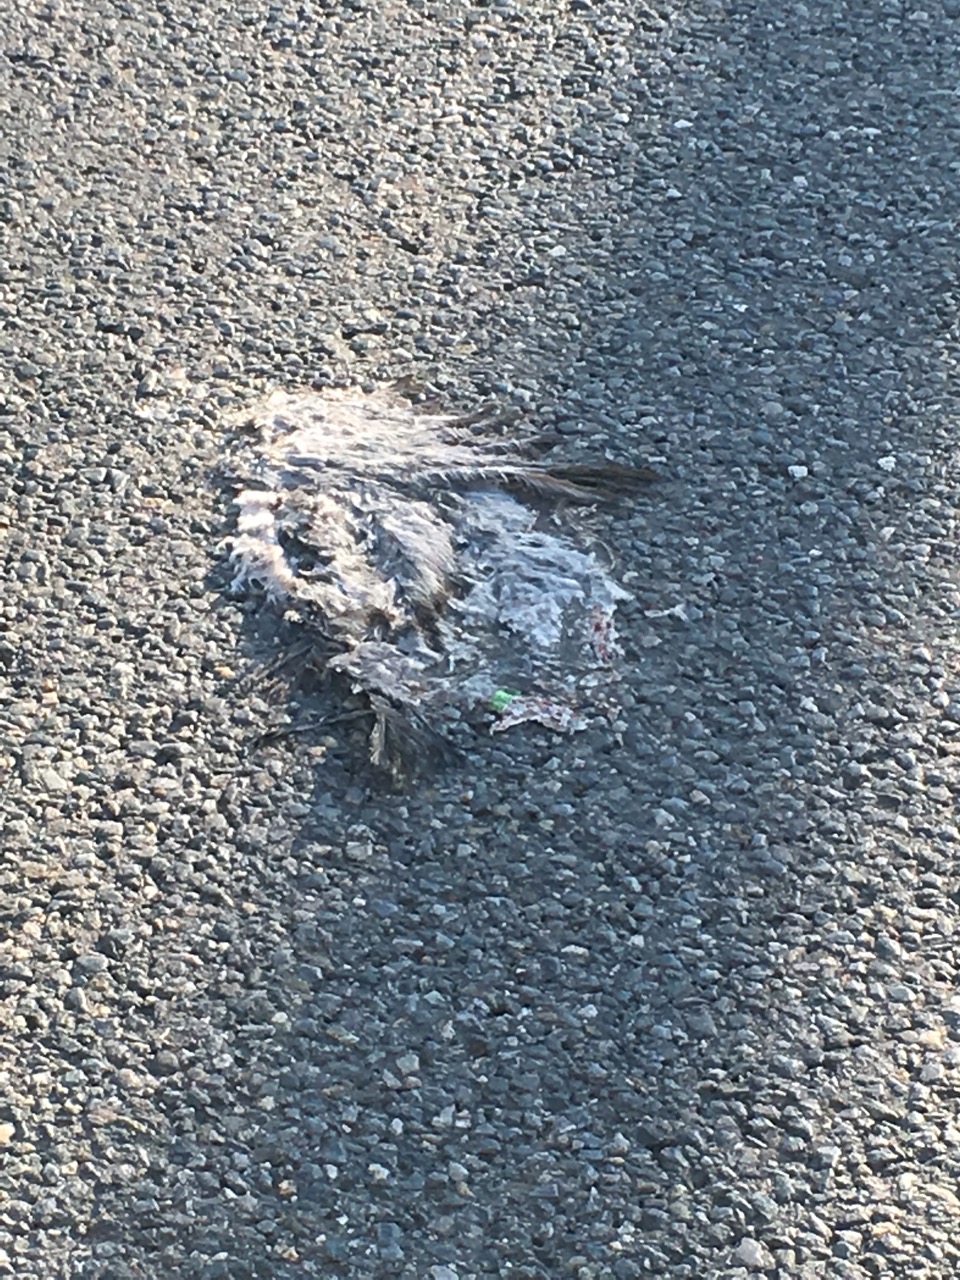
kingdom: Animalia
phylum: Chordata
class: Aves
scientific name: Aves
